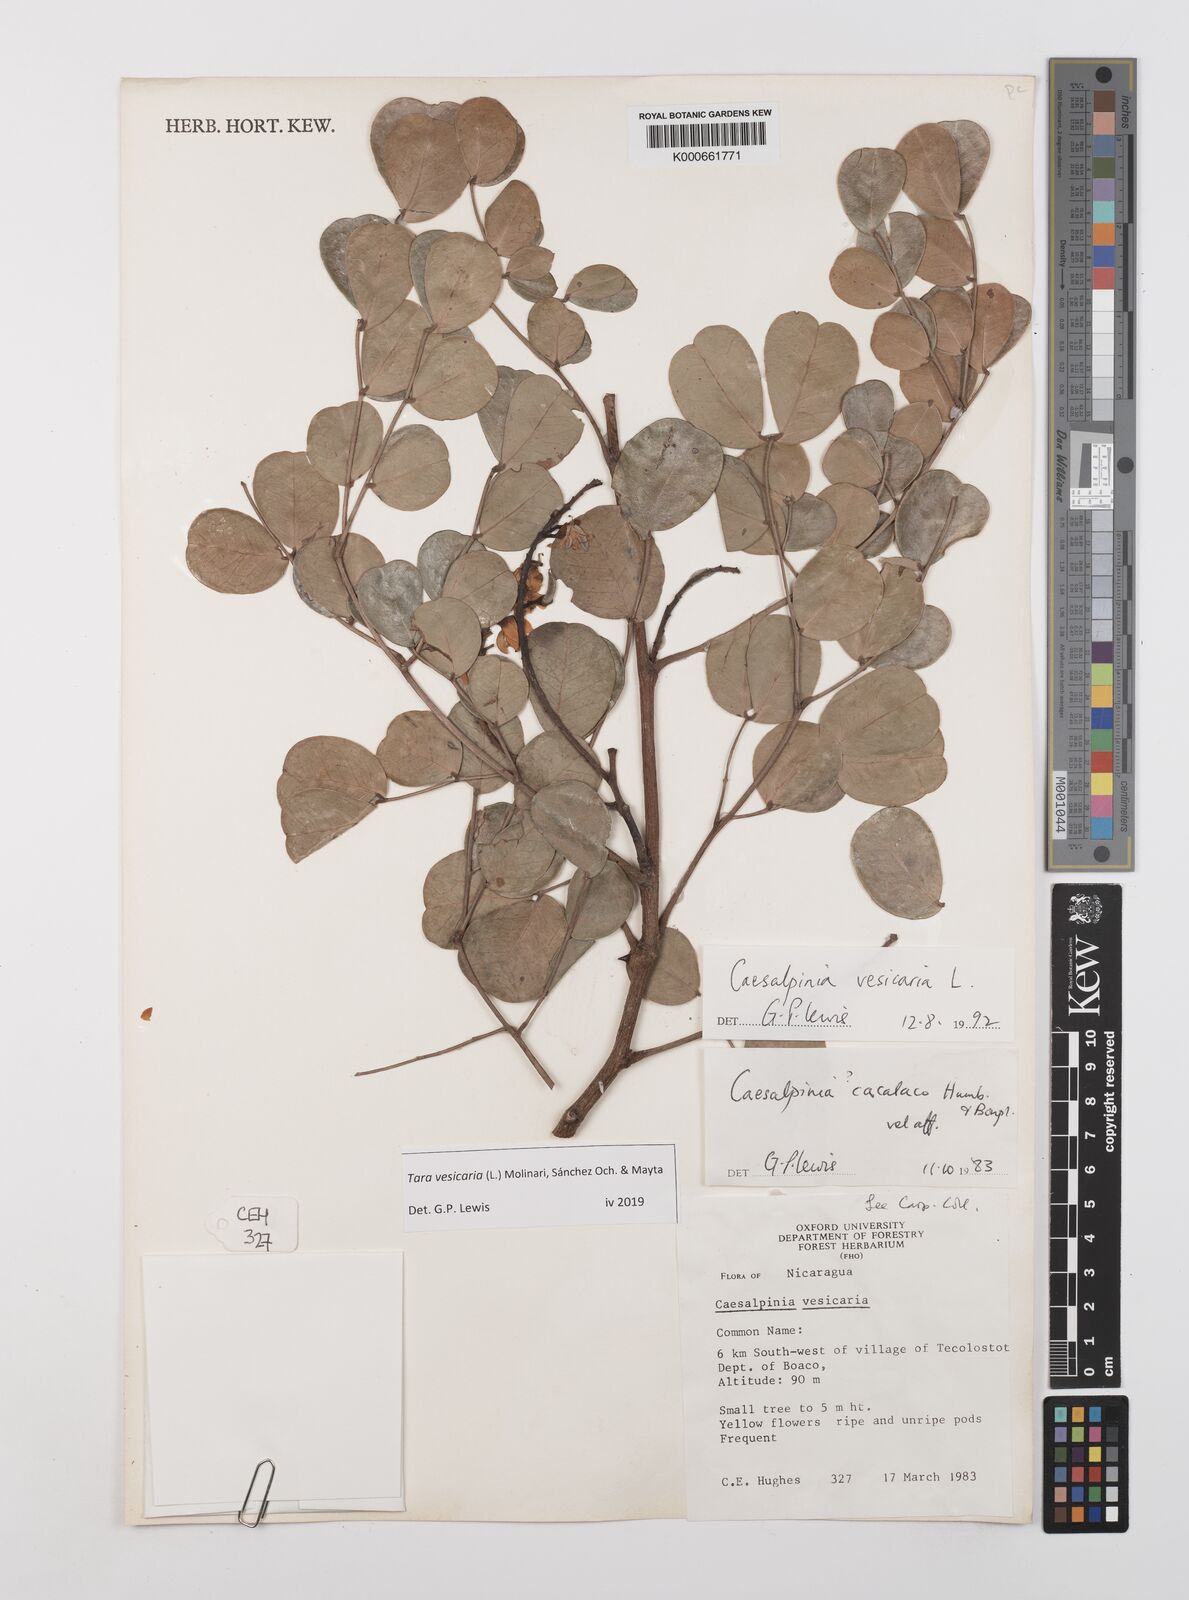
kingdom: Plantae
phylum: Tracheophyta
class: Magnoliopsida
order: Fabales
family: Fabaceae
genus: Tara
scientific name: Tara vesicaria
